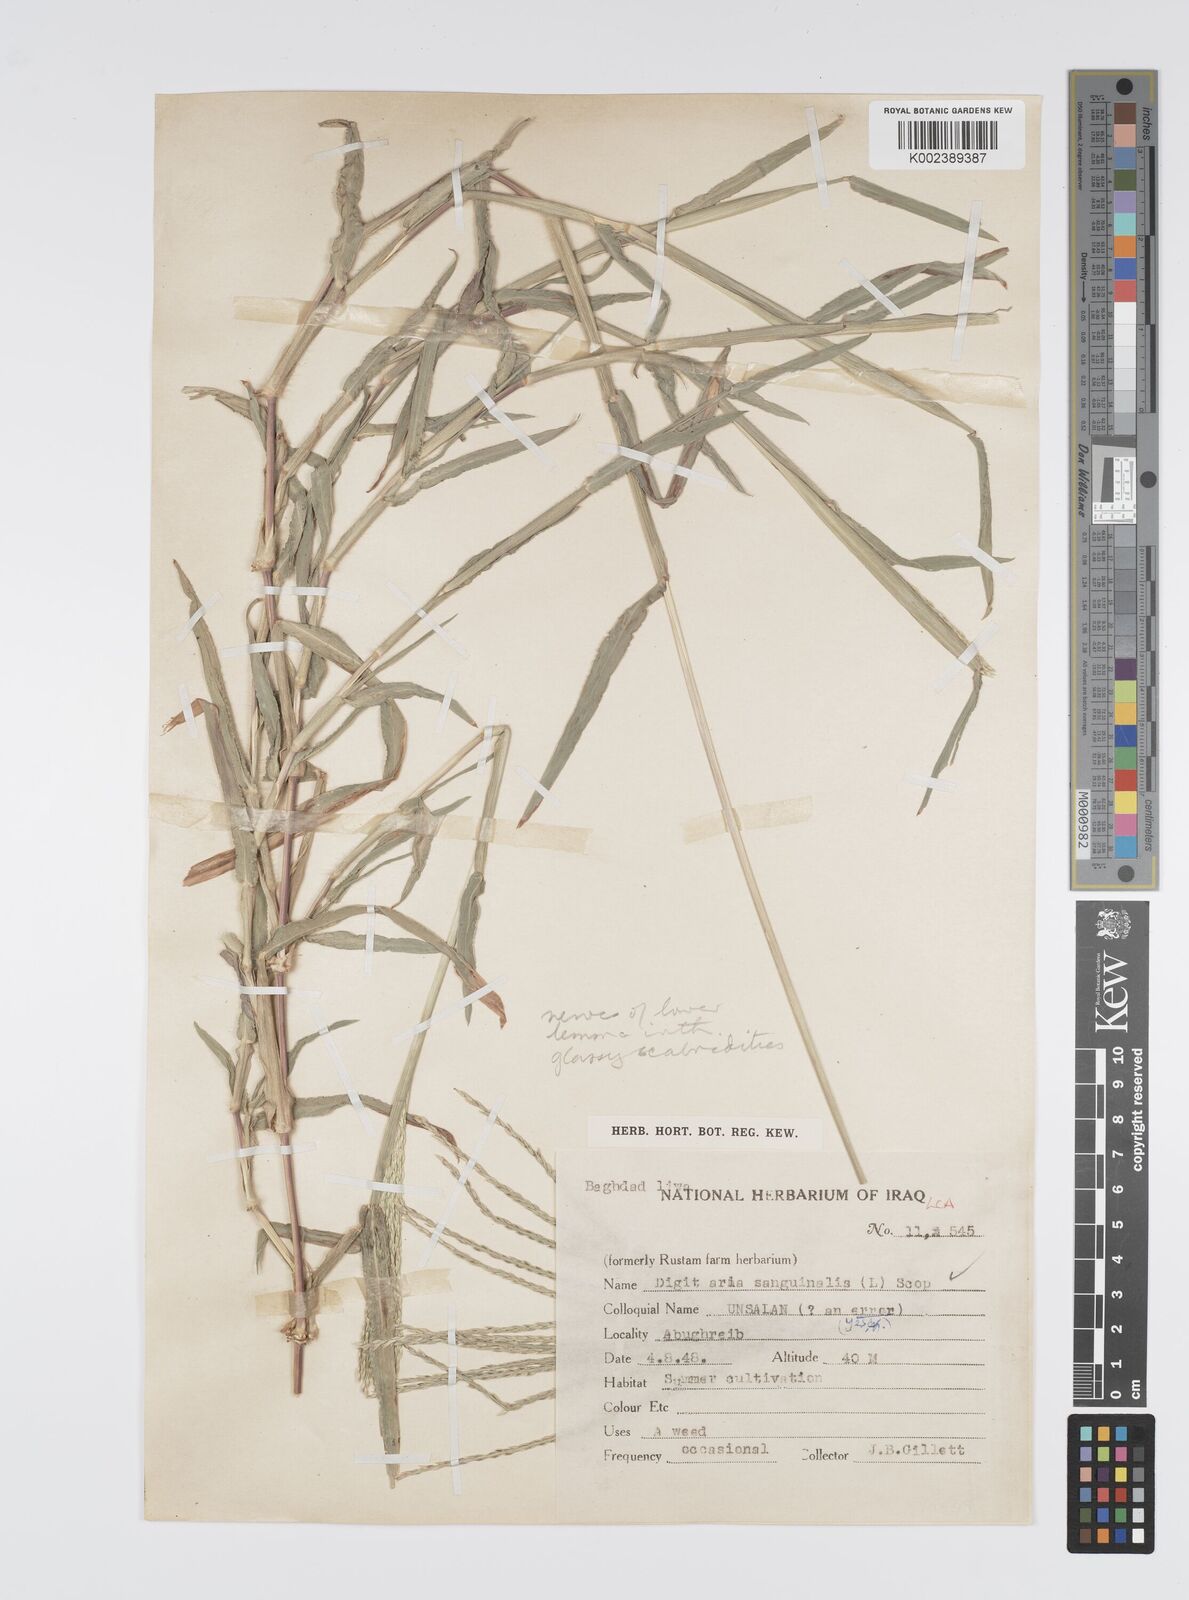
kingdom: Plantae
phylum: Tracheophyta
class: Liliopsida
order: Poales
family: Poaceae
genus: Digitaria
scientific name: Digitaria sanguinalis
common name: Hairy crabgrass
